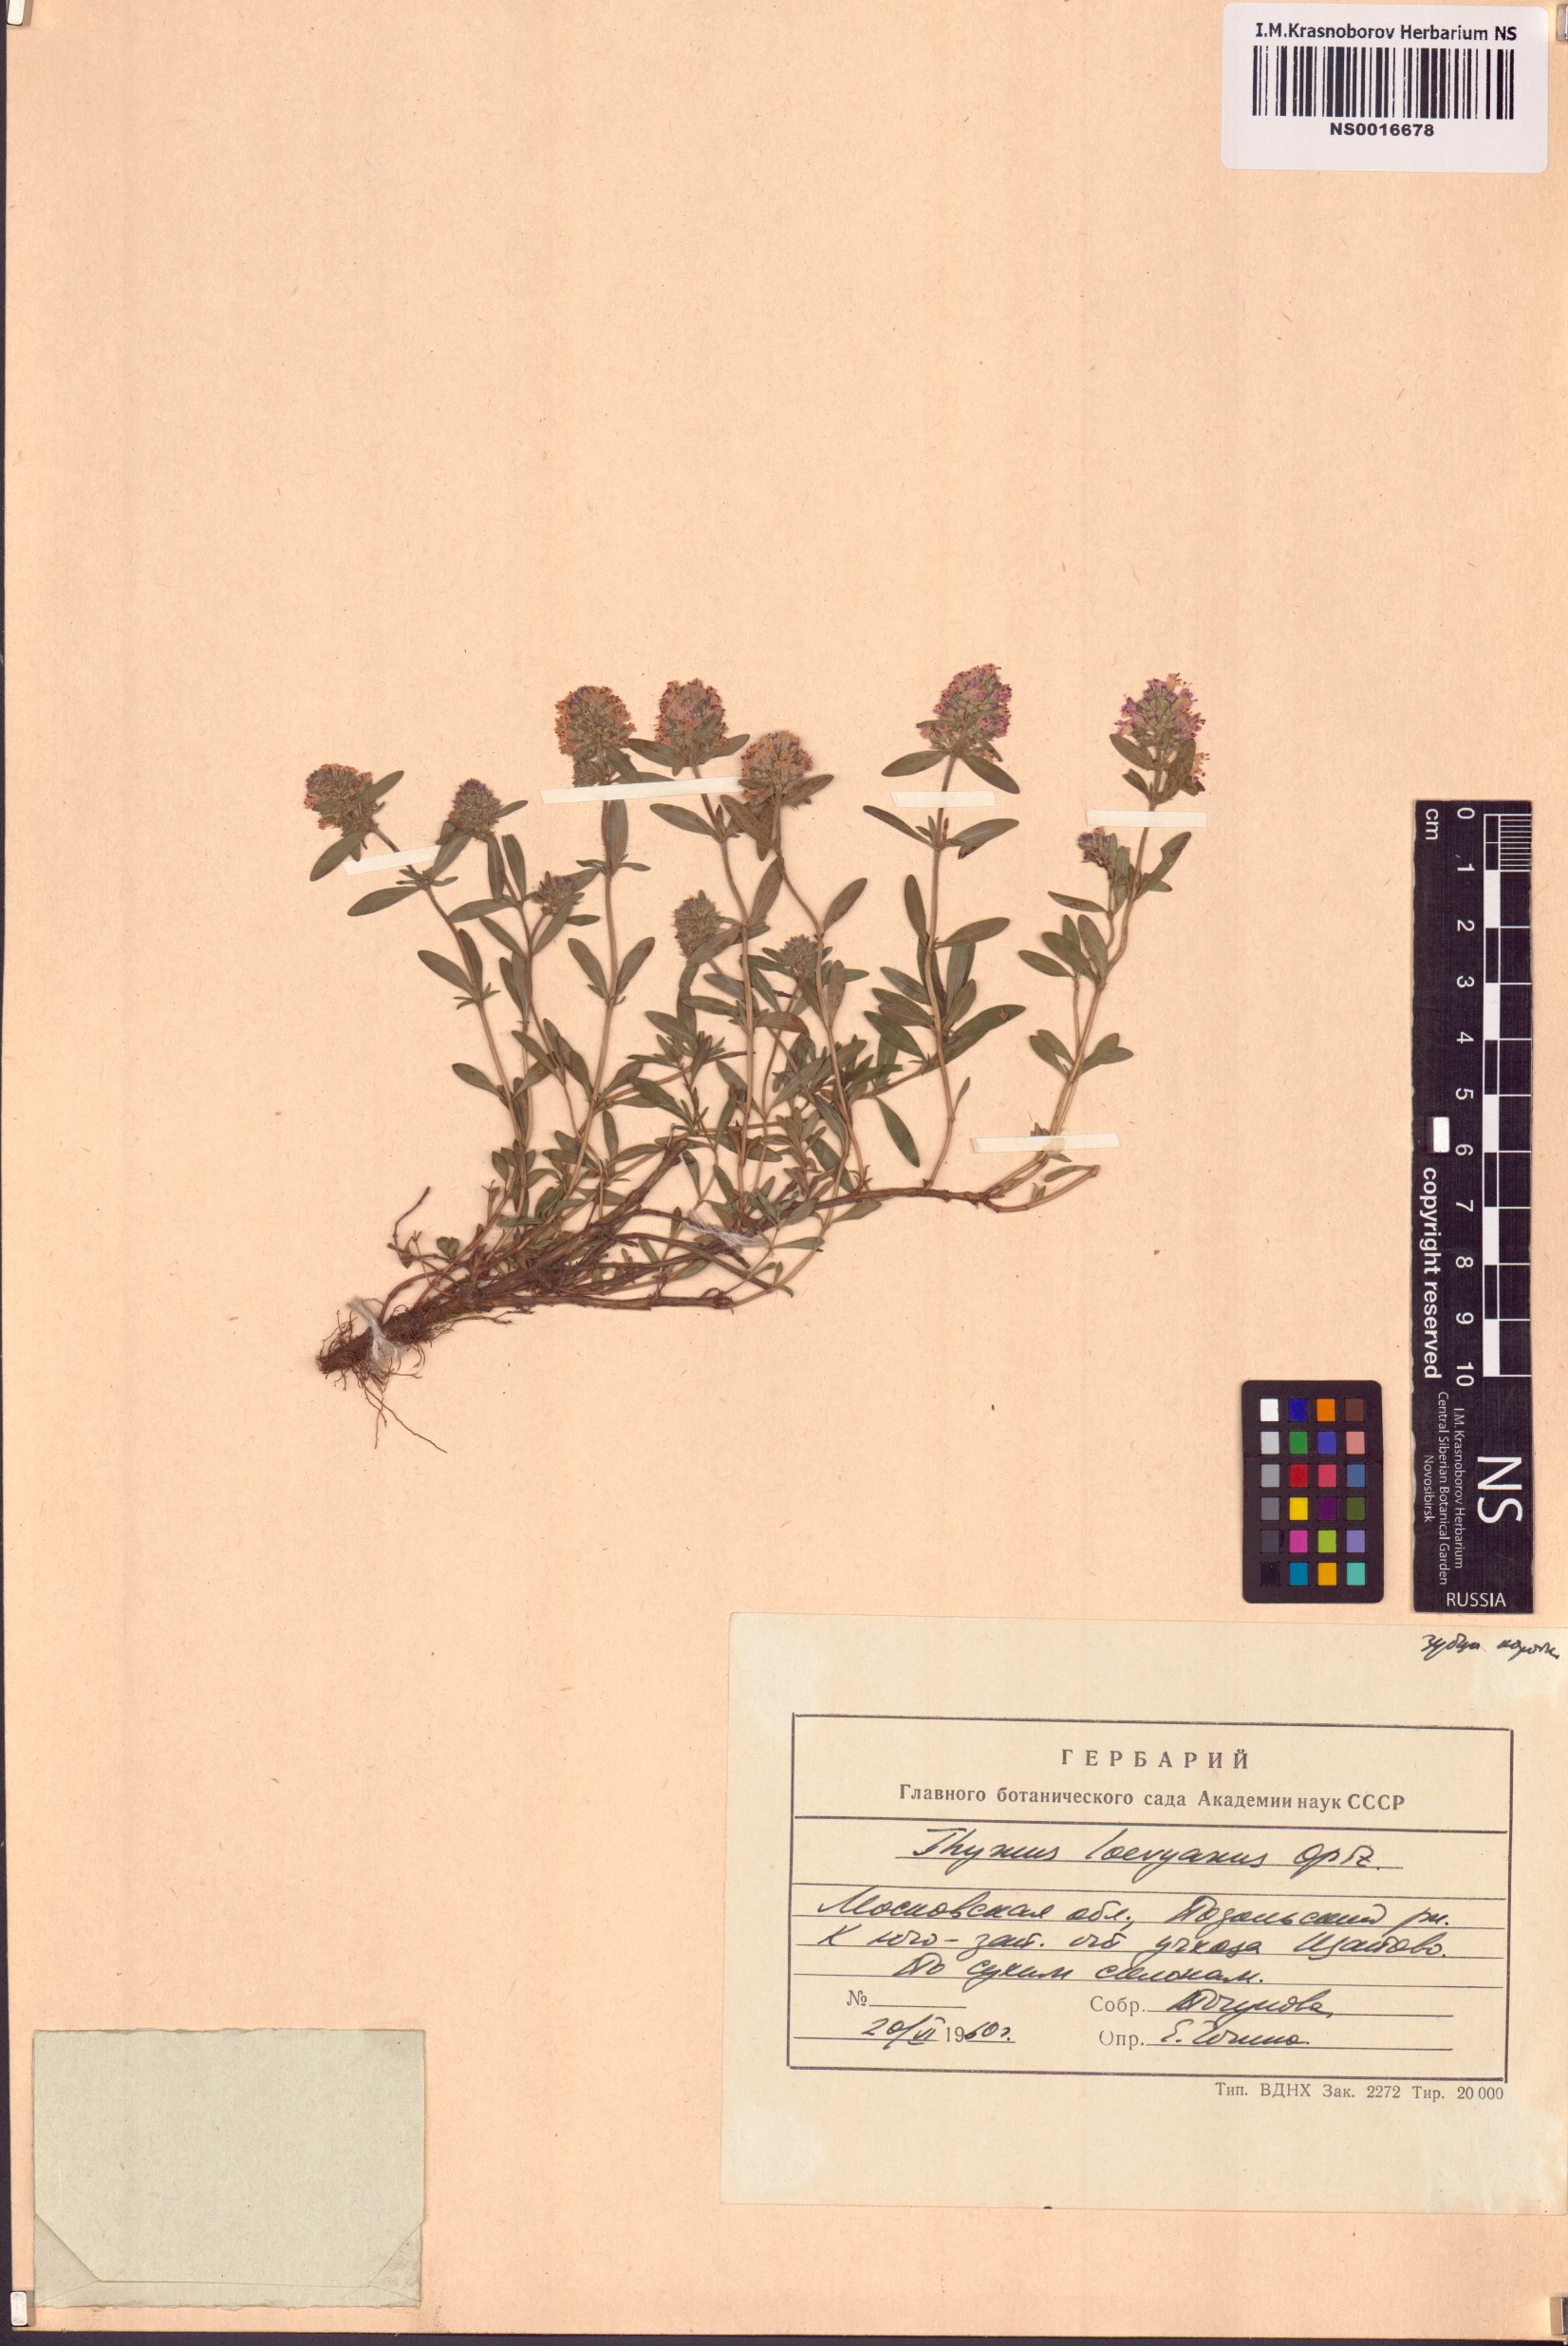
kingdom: Plantae
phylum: Tracheophyta
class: Magnoliopsida
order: Lamiales
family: Lamiaceae
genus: Thymus
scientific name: Thymus odoratissimus
